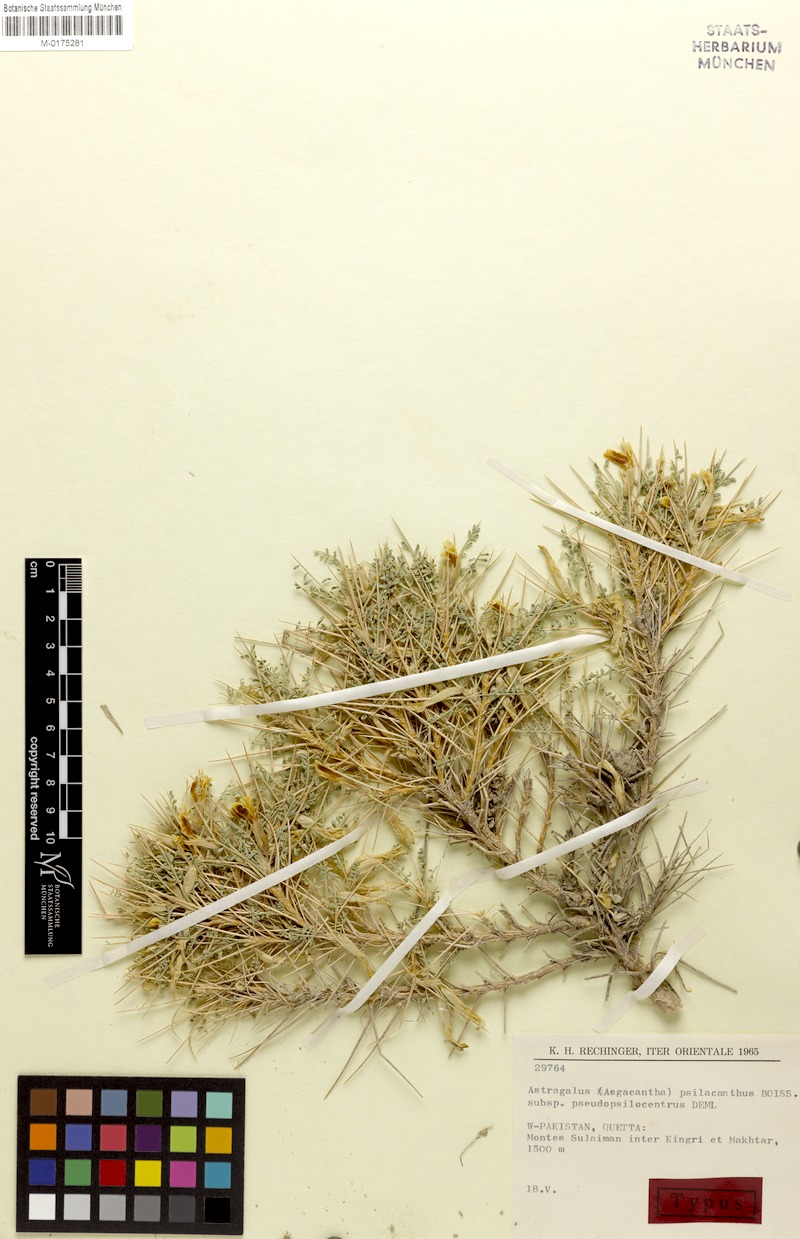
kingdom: Plantae
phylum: Tracheophyta
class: Magnoliopsida
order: Fabales
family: Fabaceae
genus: Astragalus
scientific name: Astragalus psilacanthus
